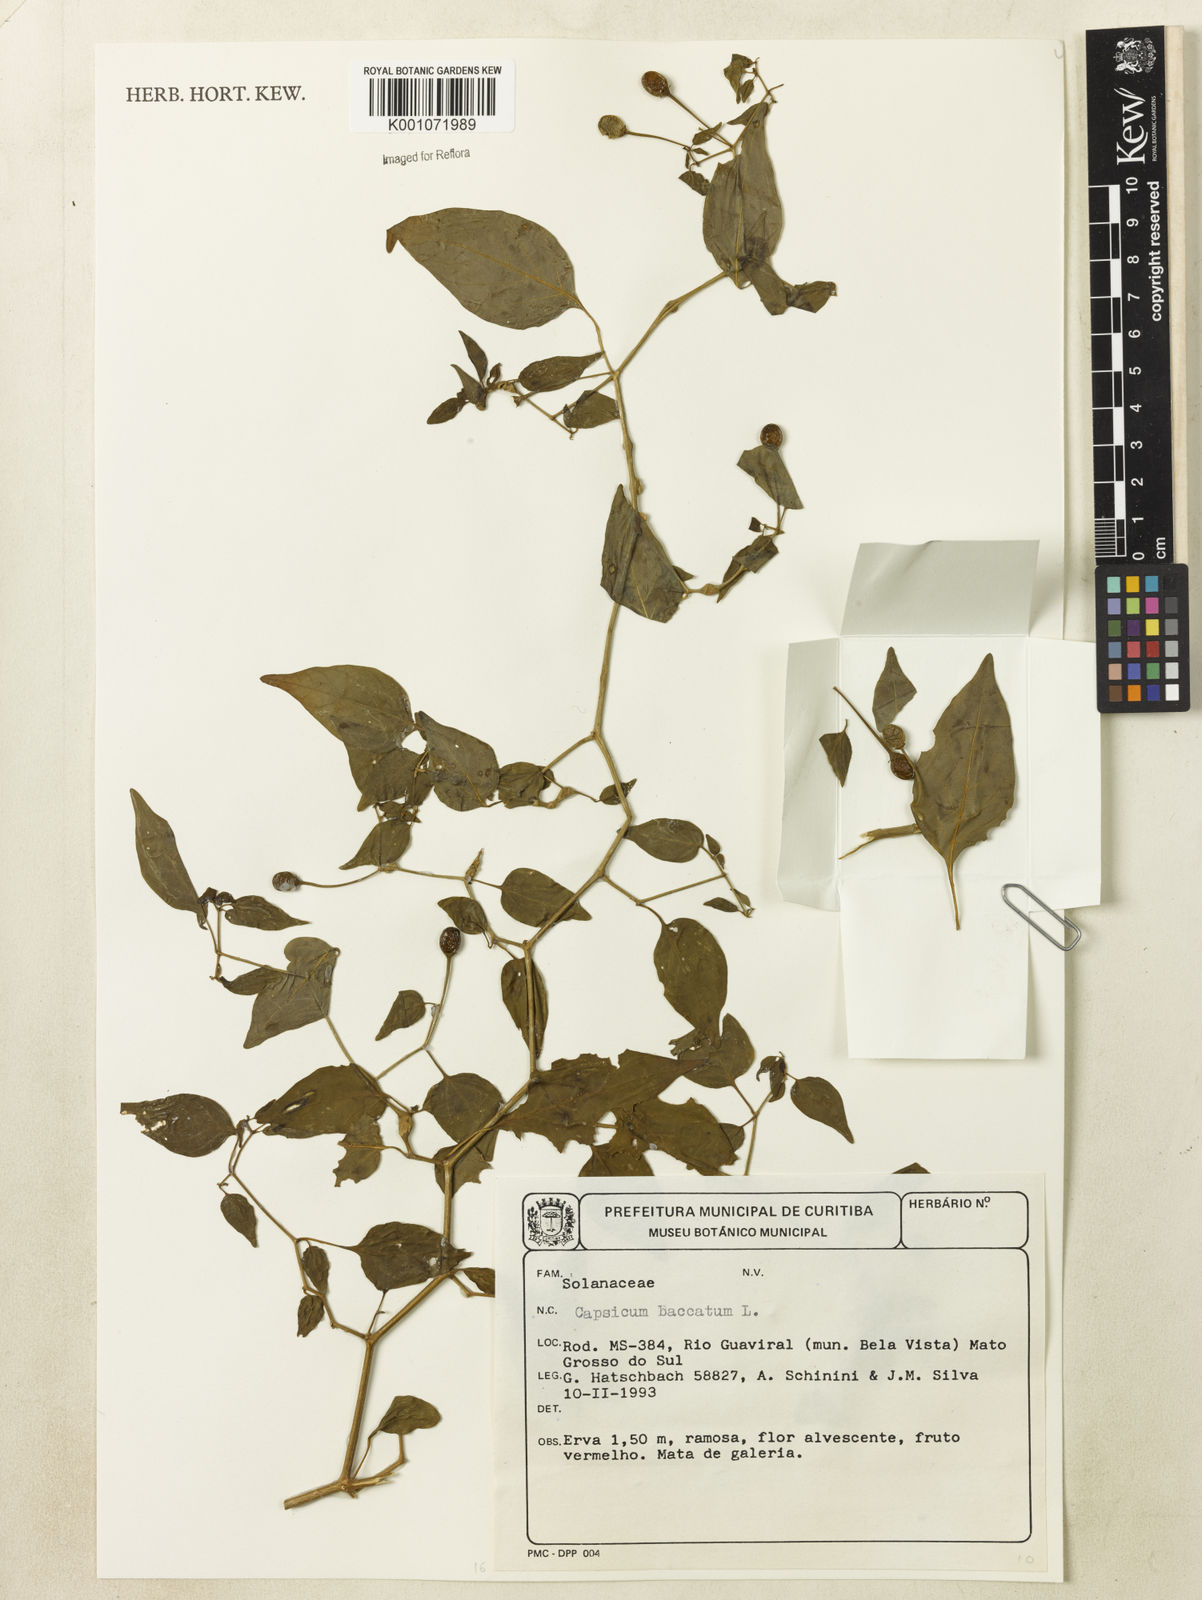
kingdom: Plantae
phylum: Tracheophyta
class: Magnoliopsida
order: Solanales
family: Solanaceae
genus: Capsicum
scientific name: Capsicum baccatum
